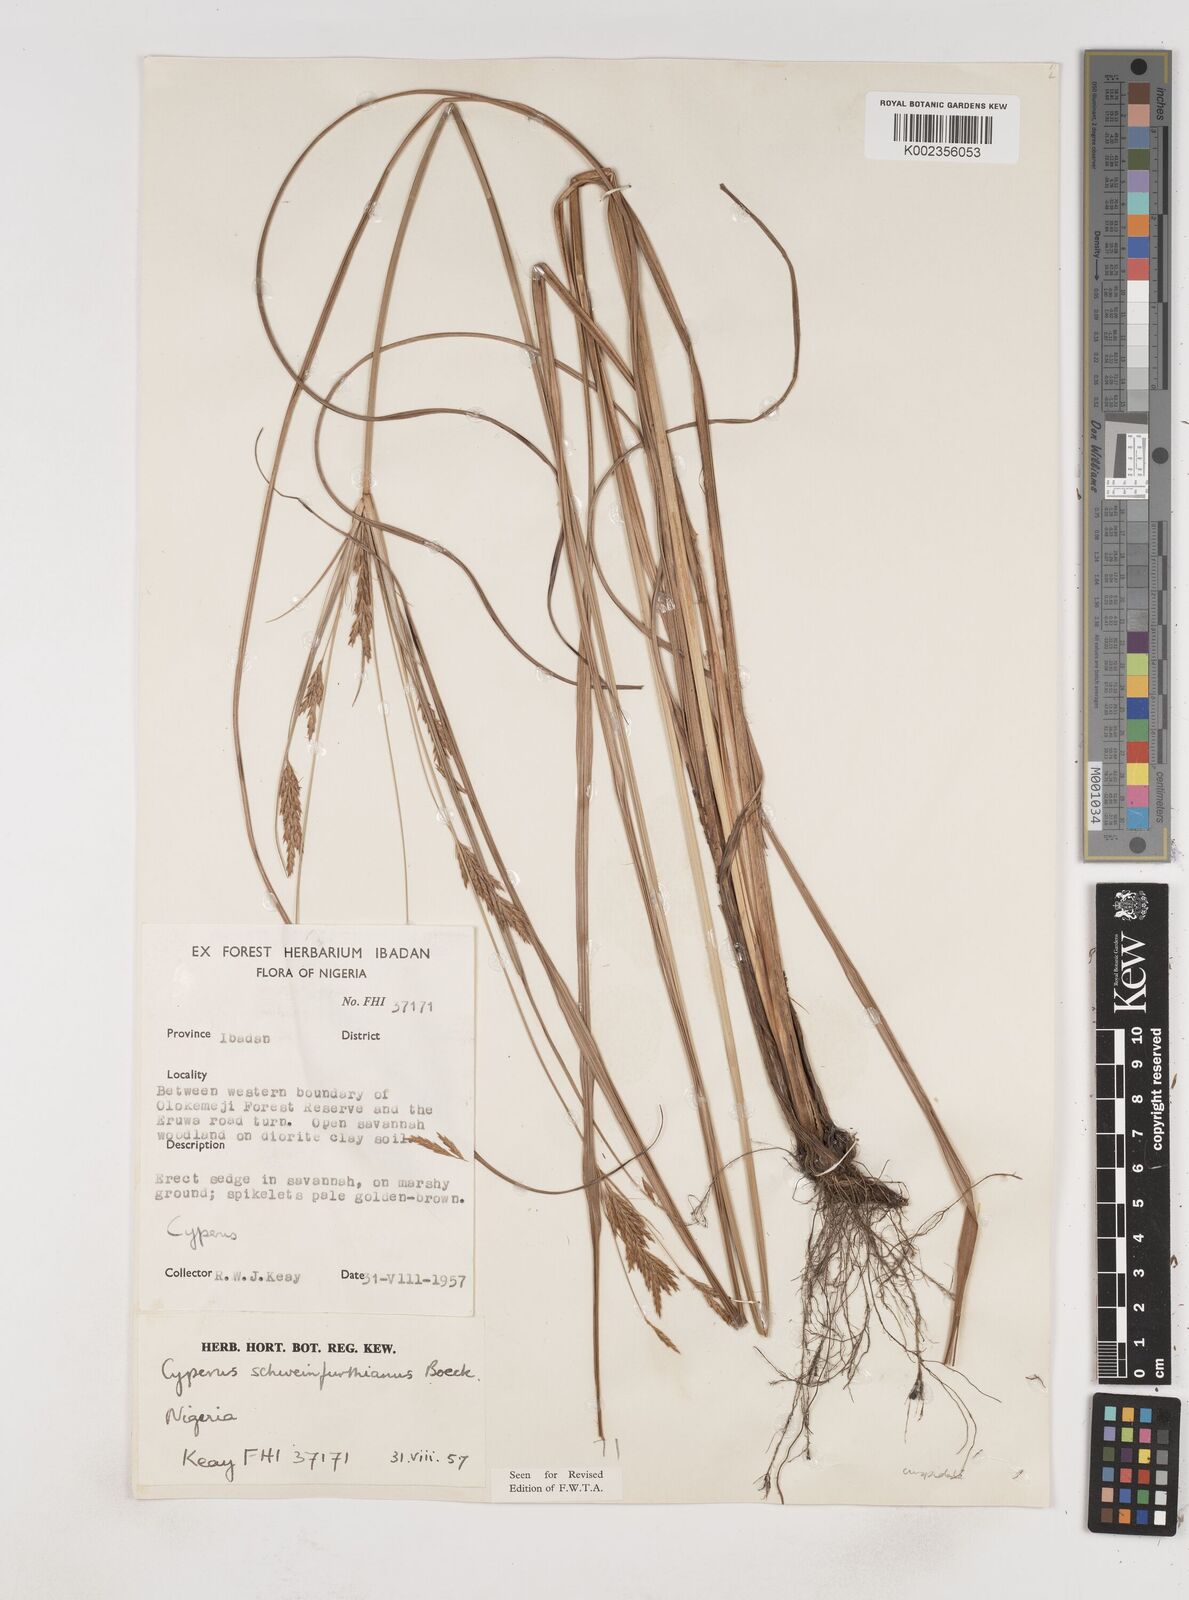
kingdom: Plantae
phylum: Tracheophyta
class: Liliopsida
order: Poales
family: Cyperaceae
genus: Cyperus
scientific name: Cyperus tenuiculmis
